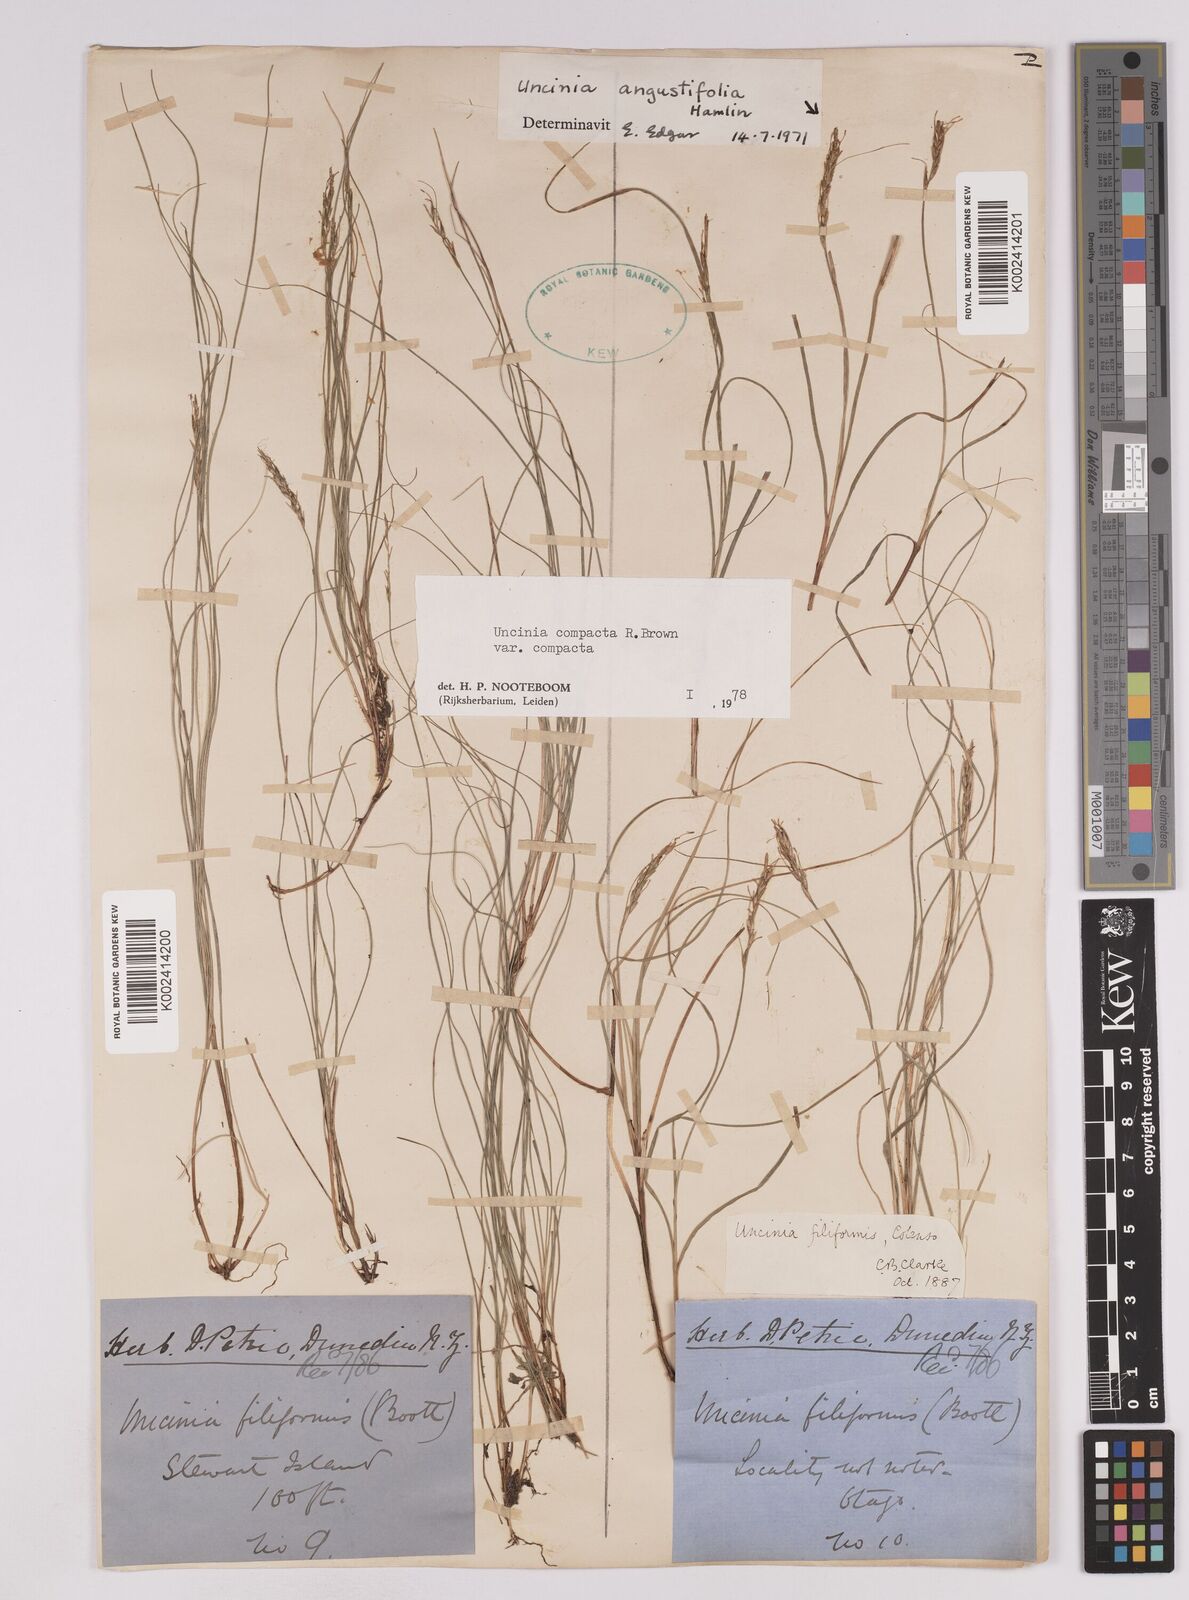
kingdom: Plantae
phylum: Tracheophyta
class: Liliopsida
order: Poales
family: Cyperaceae
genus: Carex
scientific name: Carex austrocompacta
